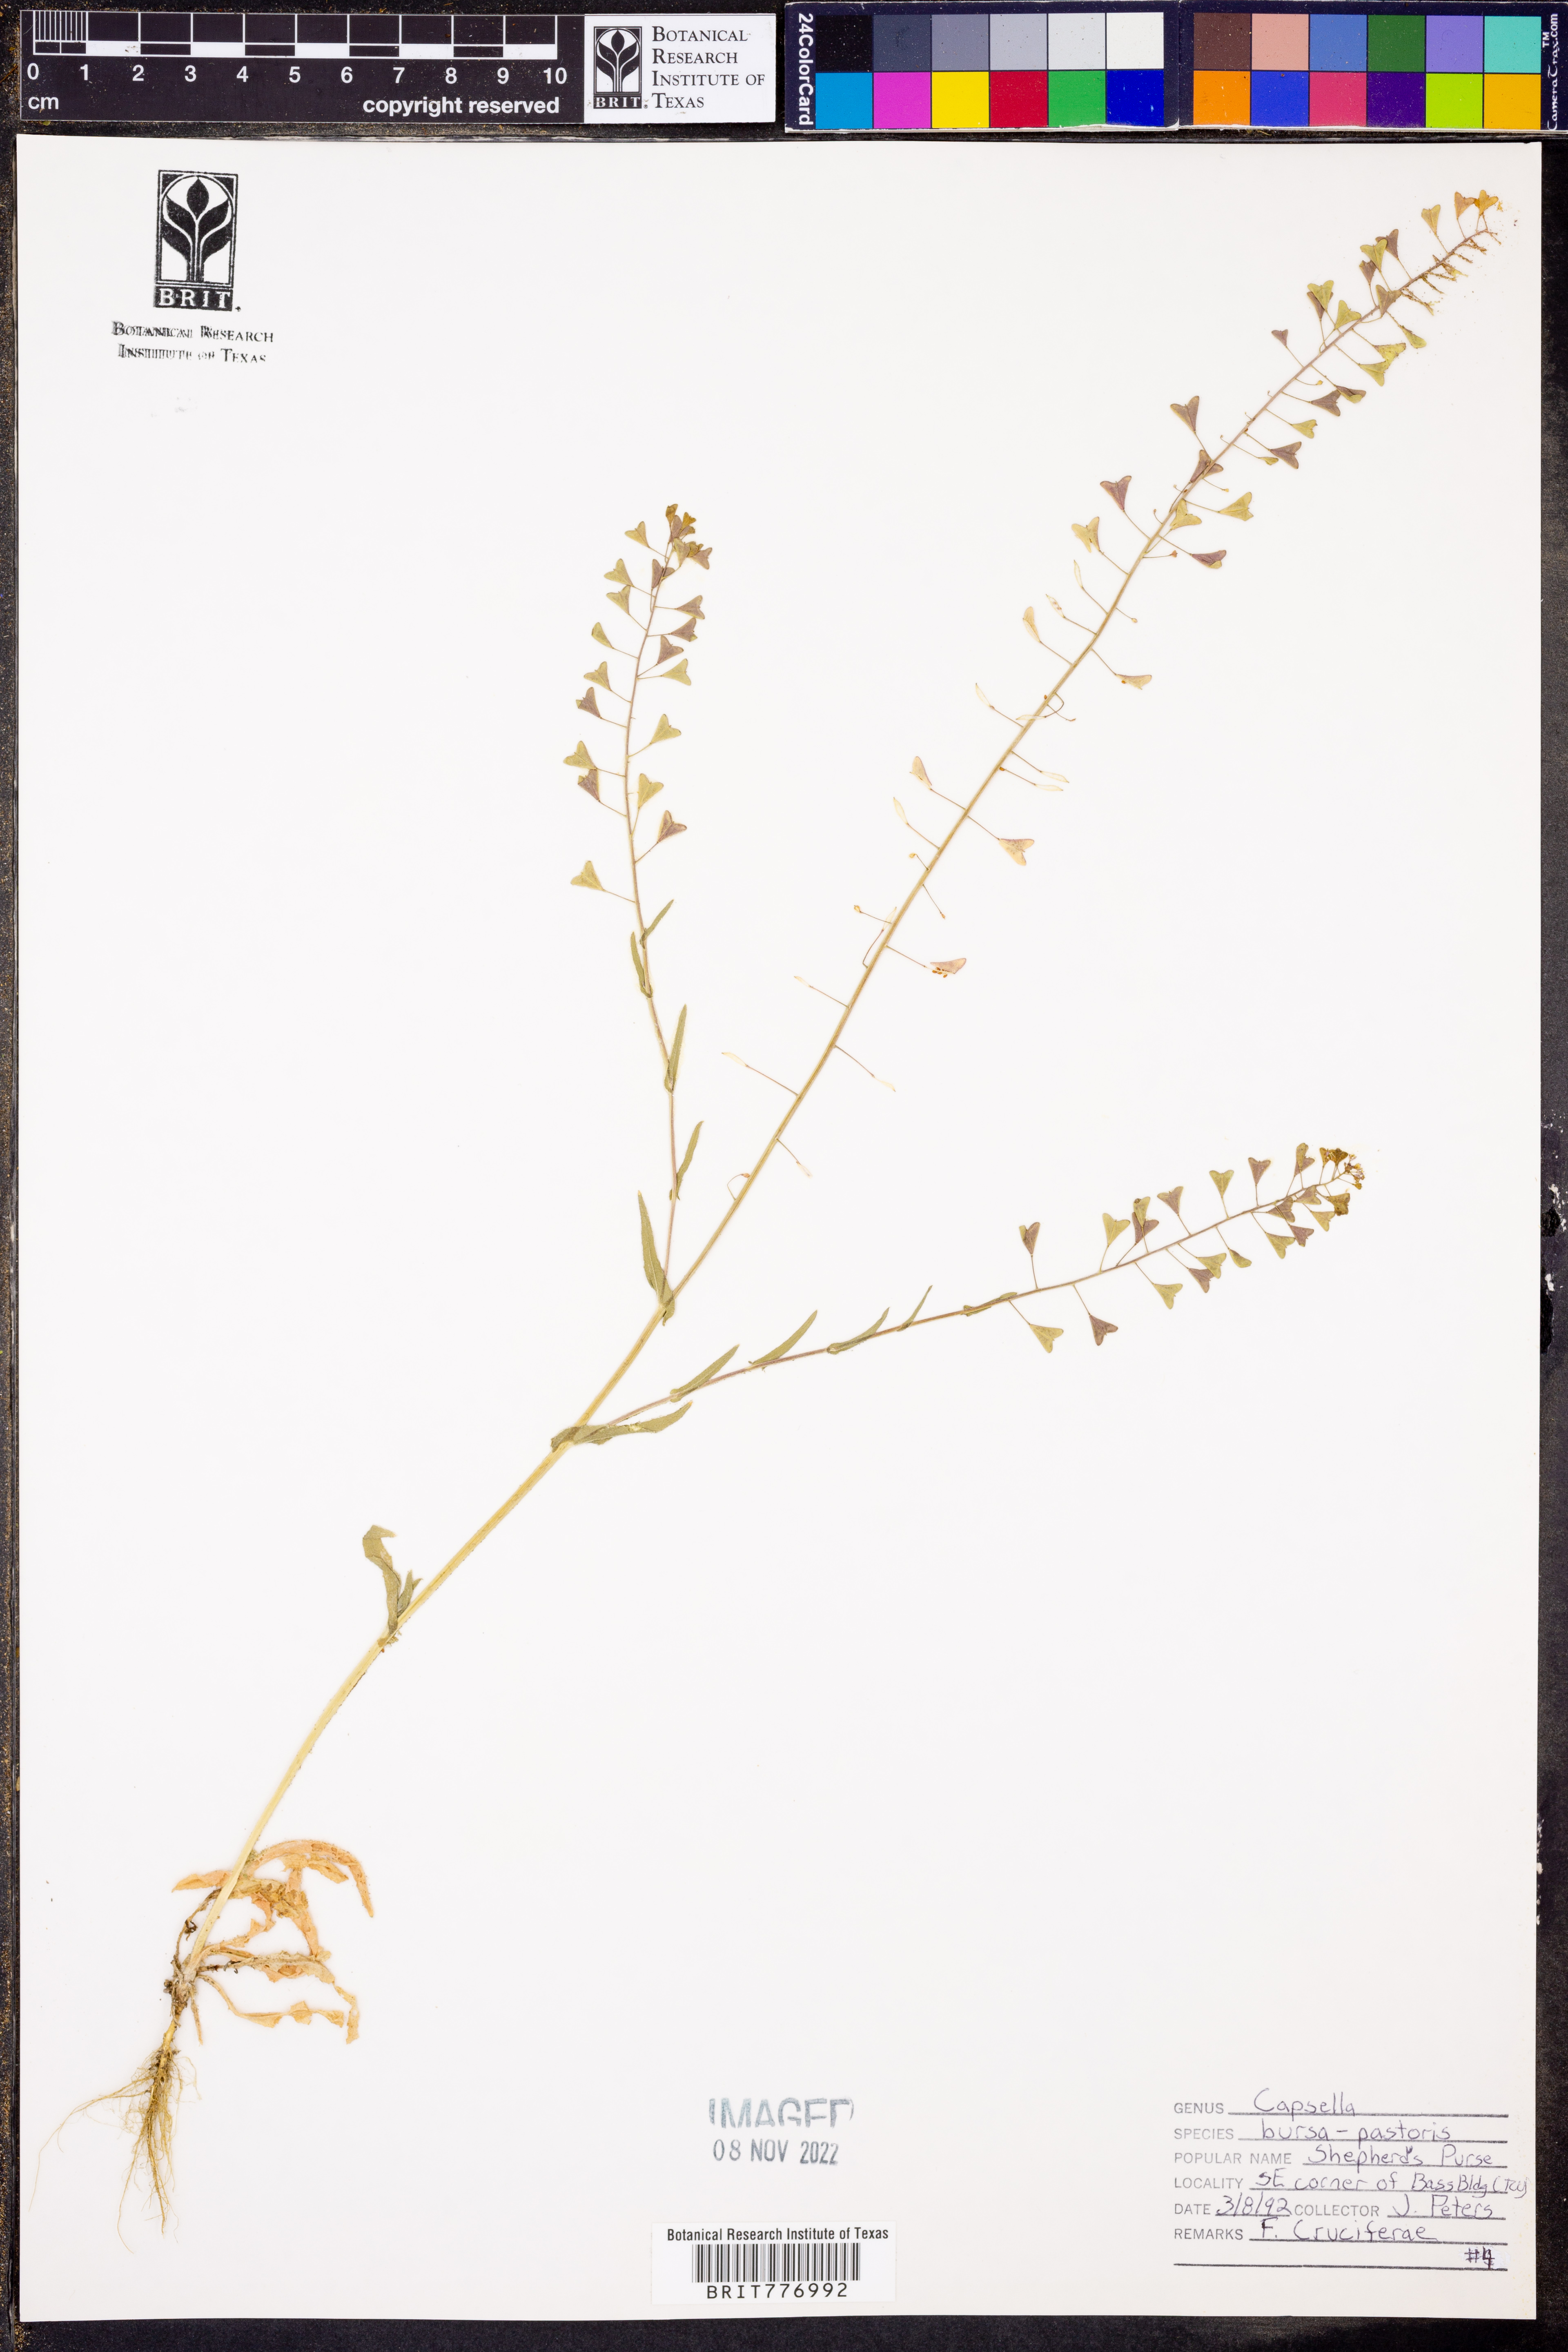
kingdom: Plantae
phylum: Tracheophyta
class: Magnoliopsida
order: Brassicales
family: Brassicaceae
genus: Capsella
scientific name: Capsella bursa-pastoris
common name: Shepherd's purse
